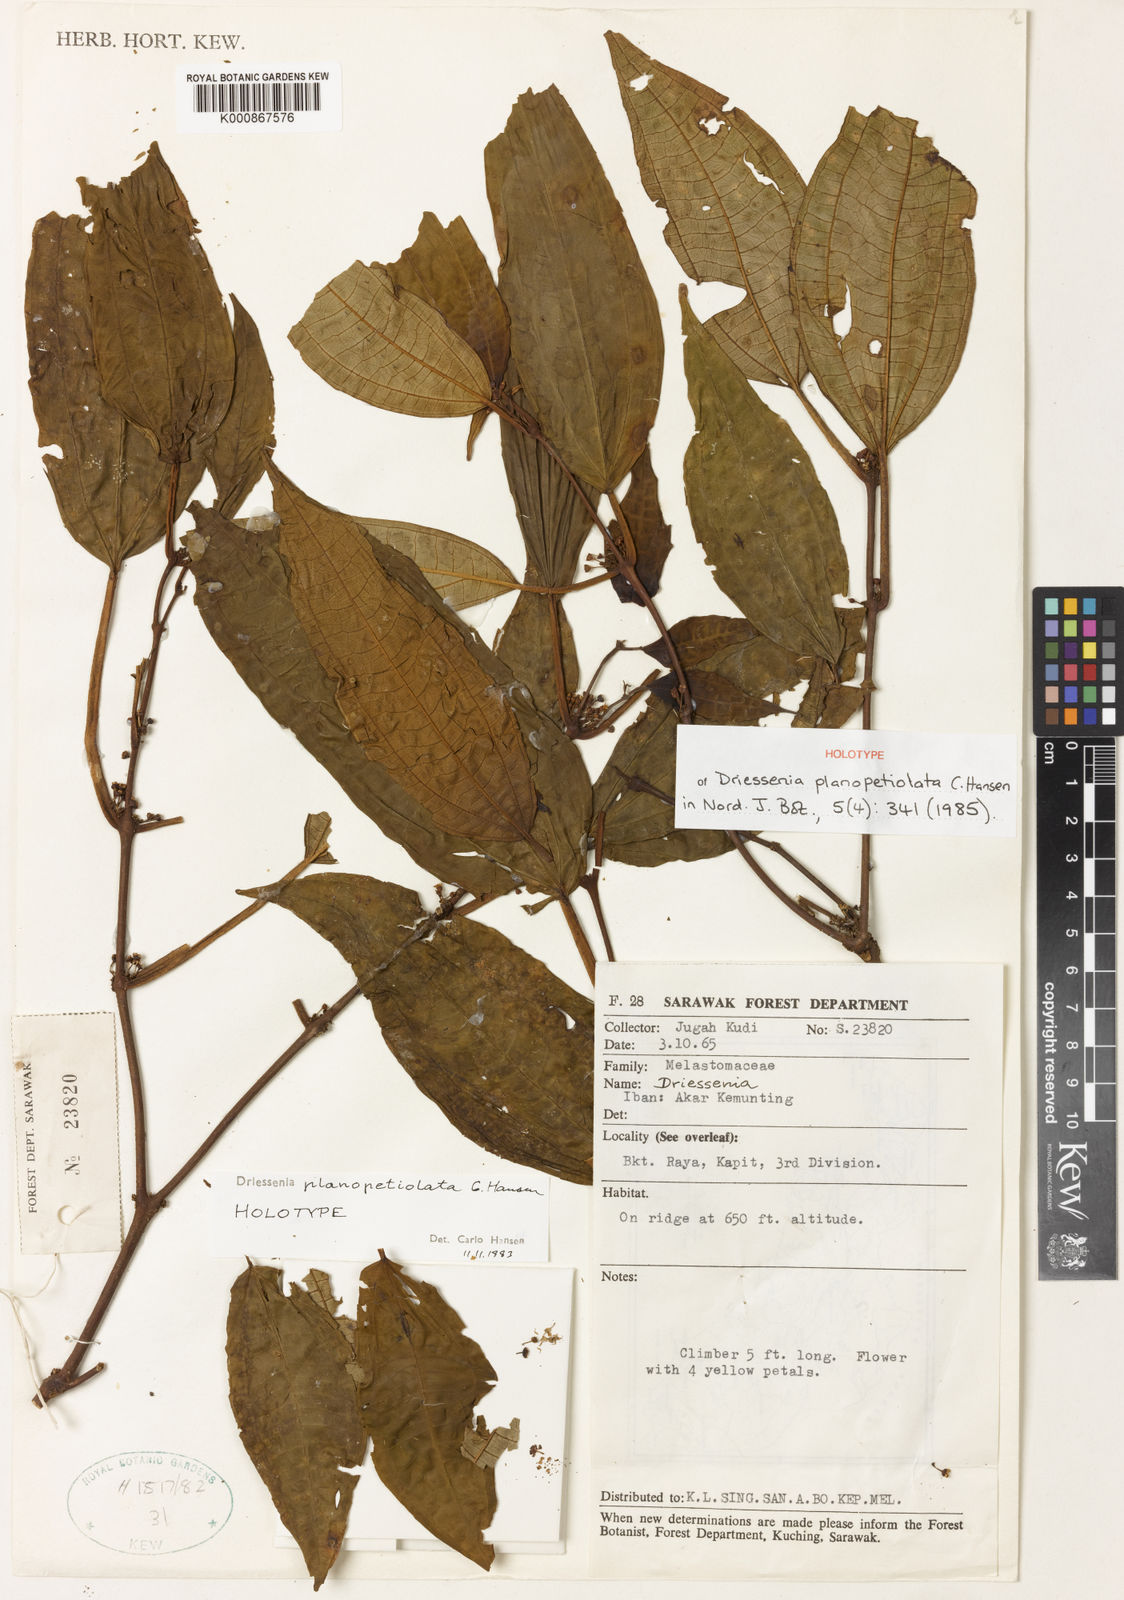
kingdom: Plantae
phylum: Tracheophyta
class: Magnoliopsida
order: Myrtales
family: Melastomataceae
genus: Driessenia
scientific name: Driessenia planopetiolata
